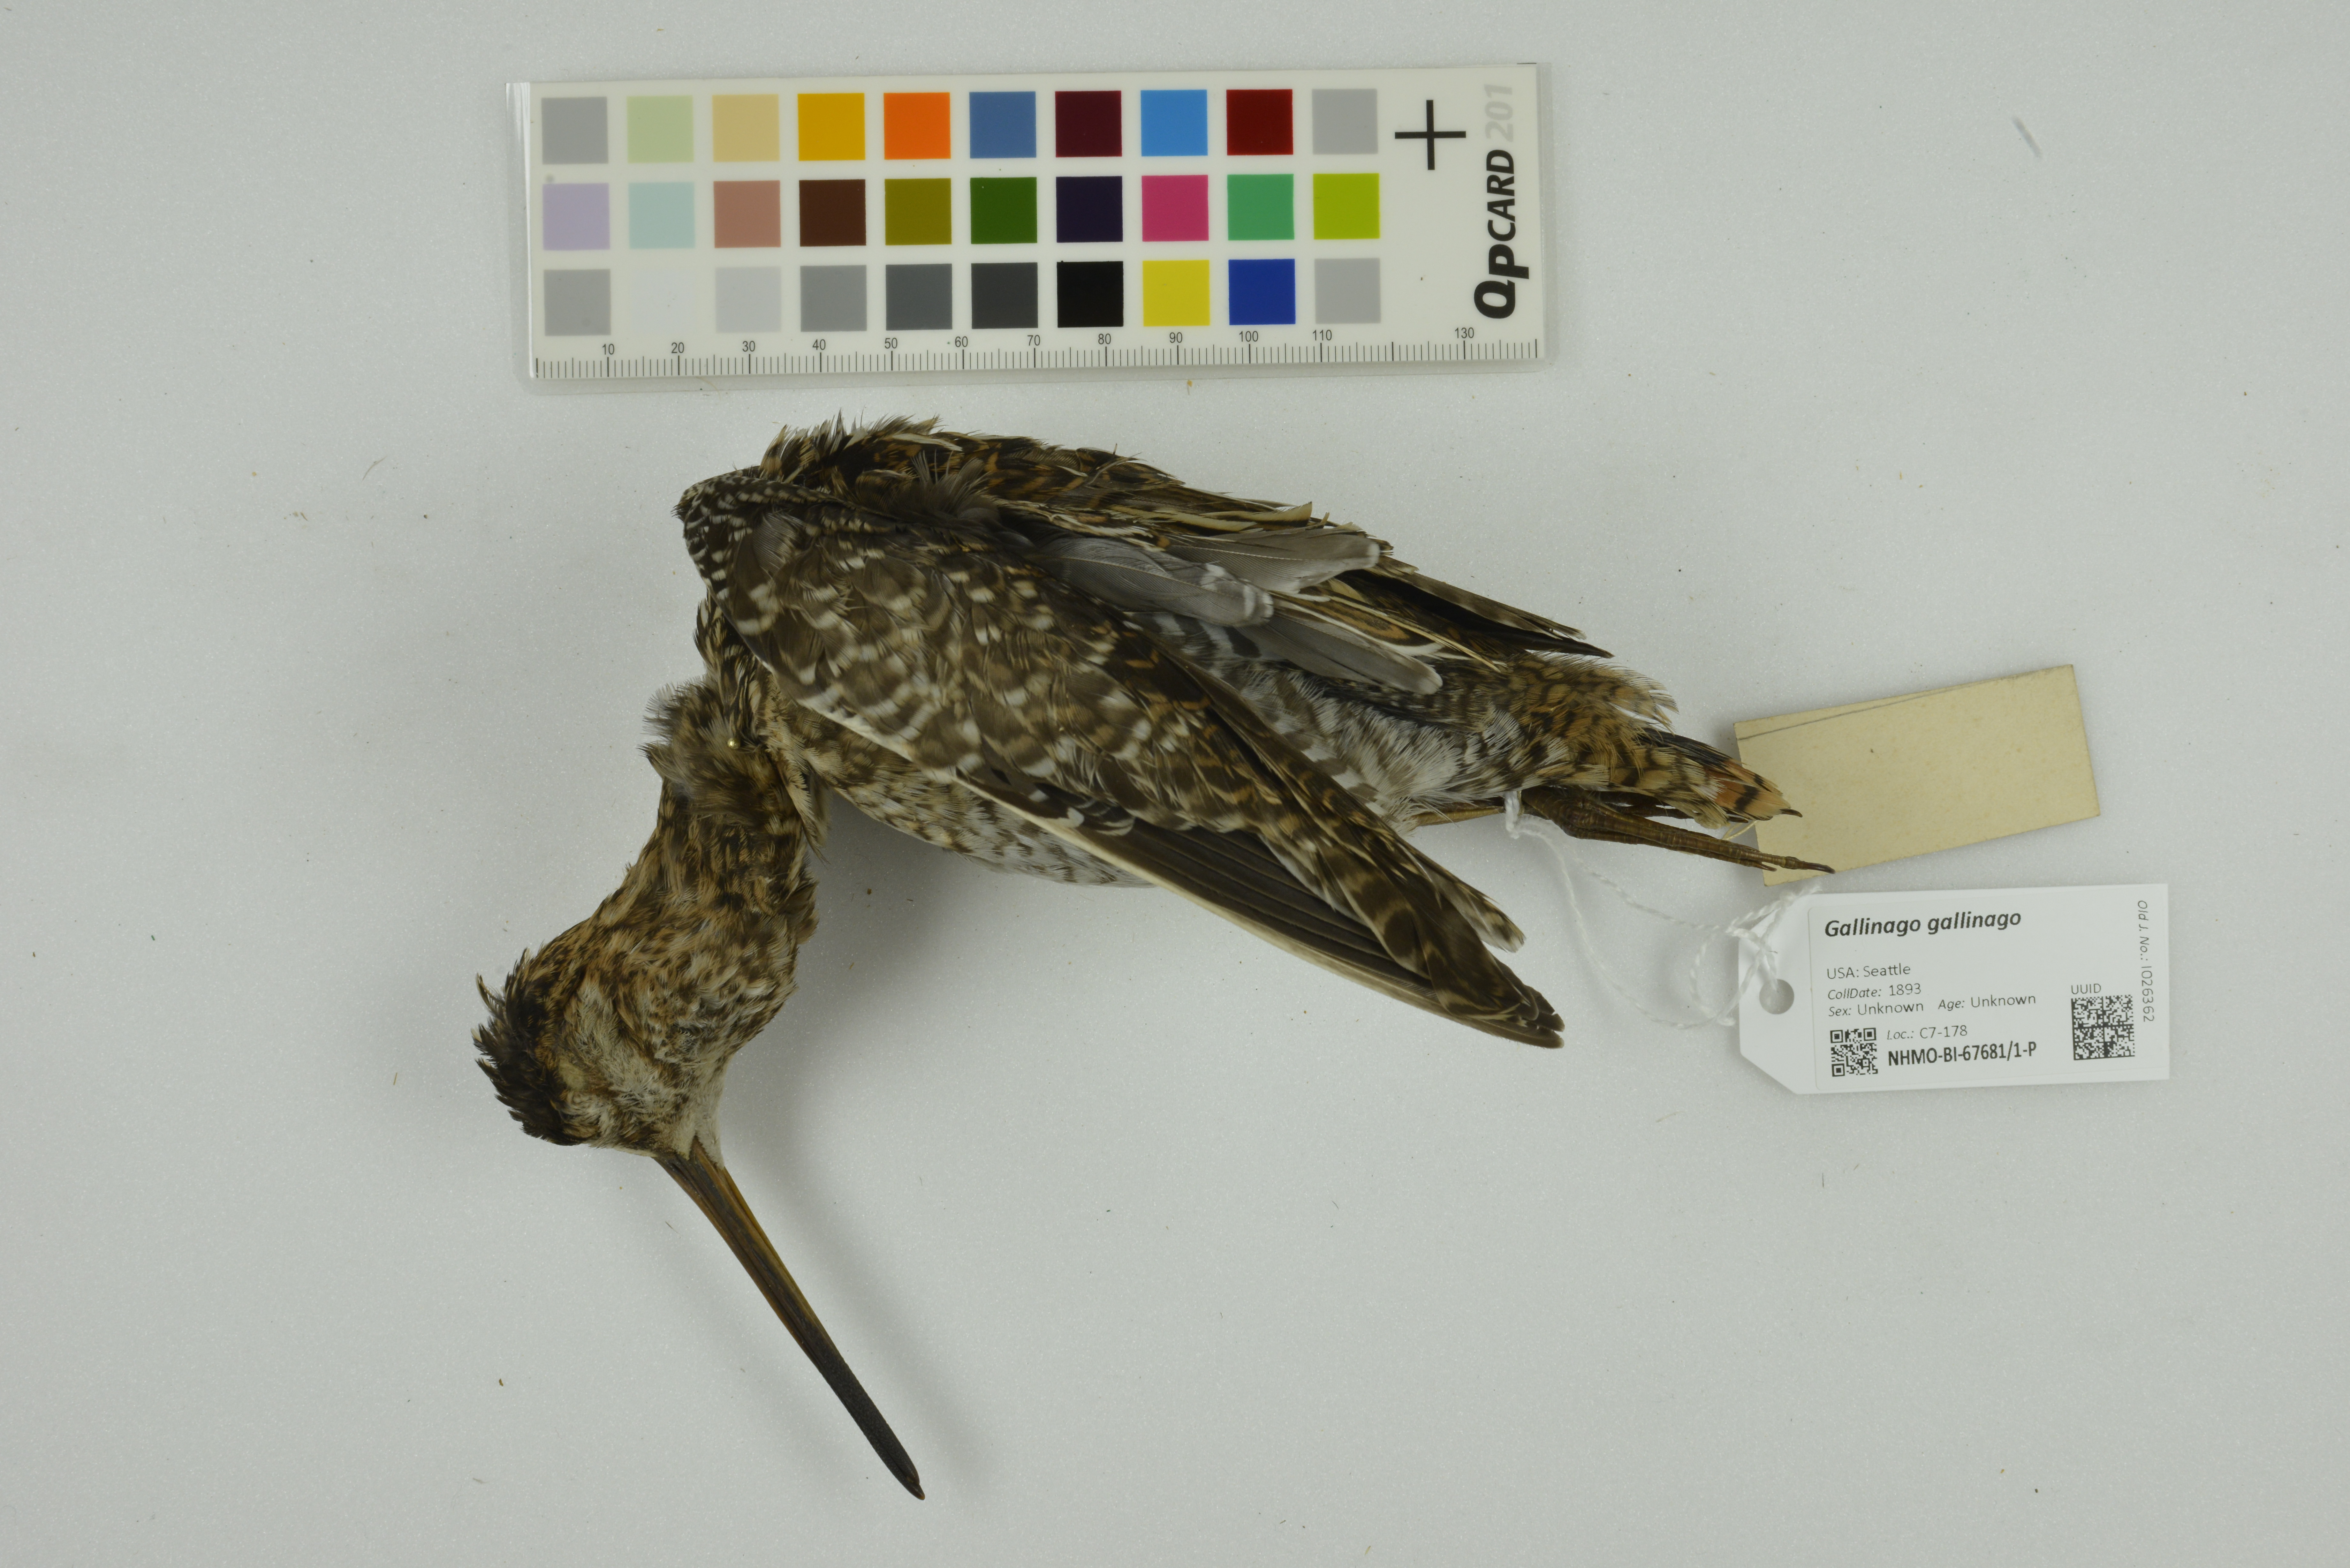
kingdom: Animalia
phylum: Chordata
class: Aves
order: Charadriiformes
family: Scolopacidae
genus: Gallinago
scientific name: Gallinago gallinago
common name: Common snipe
